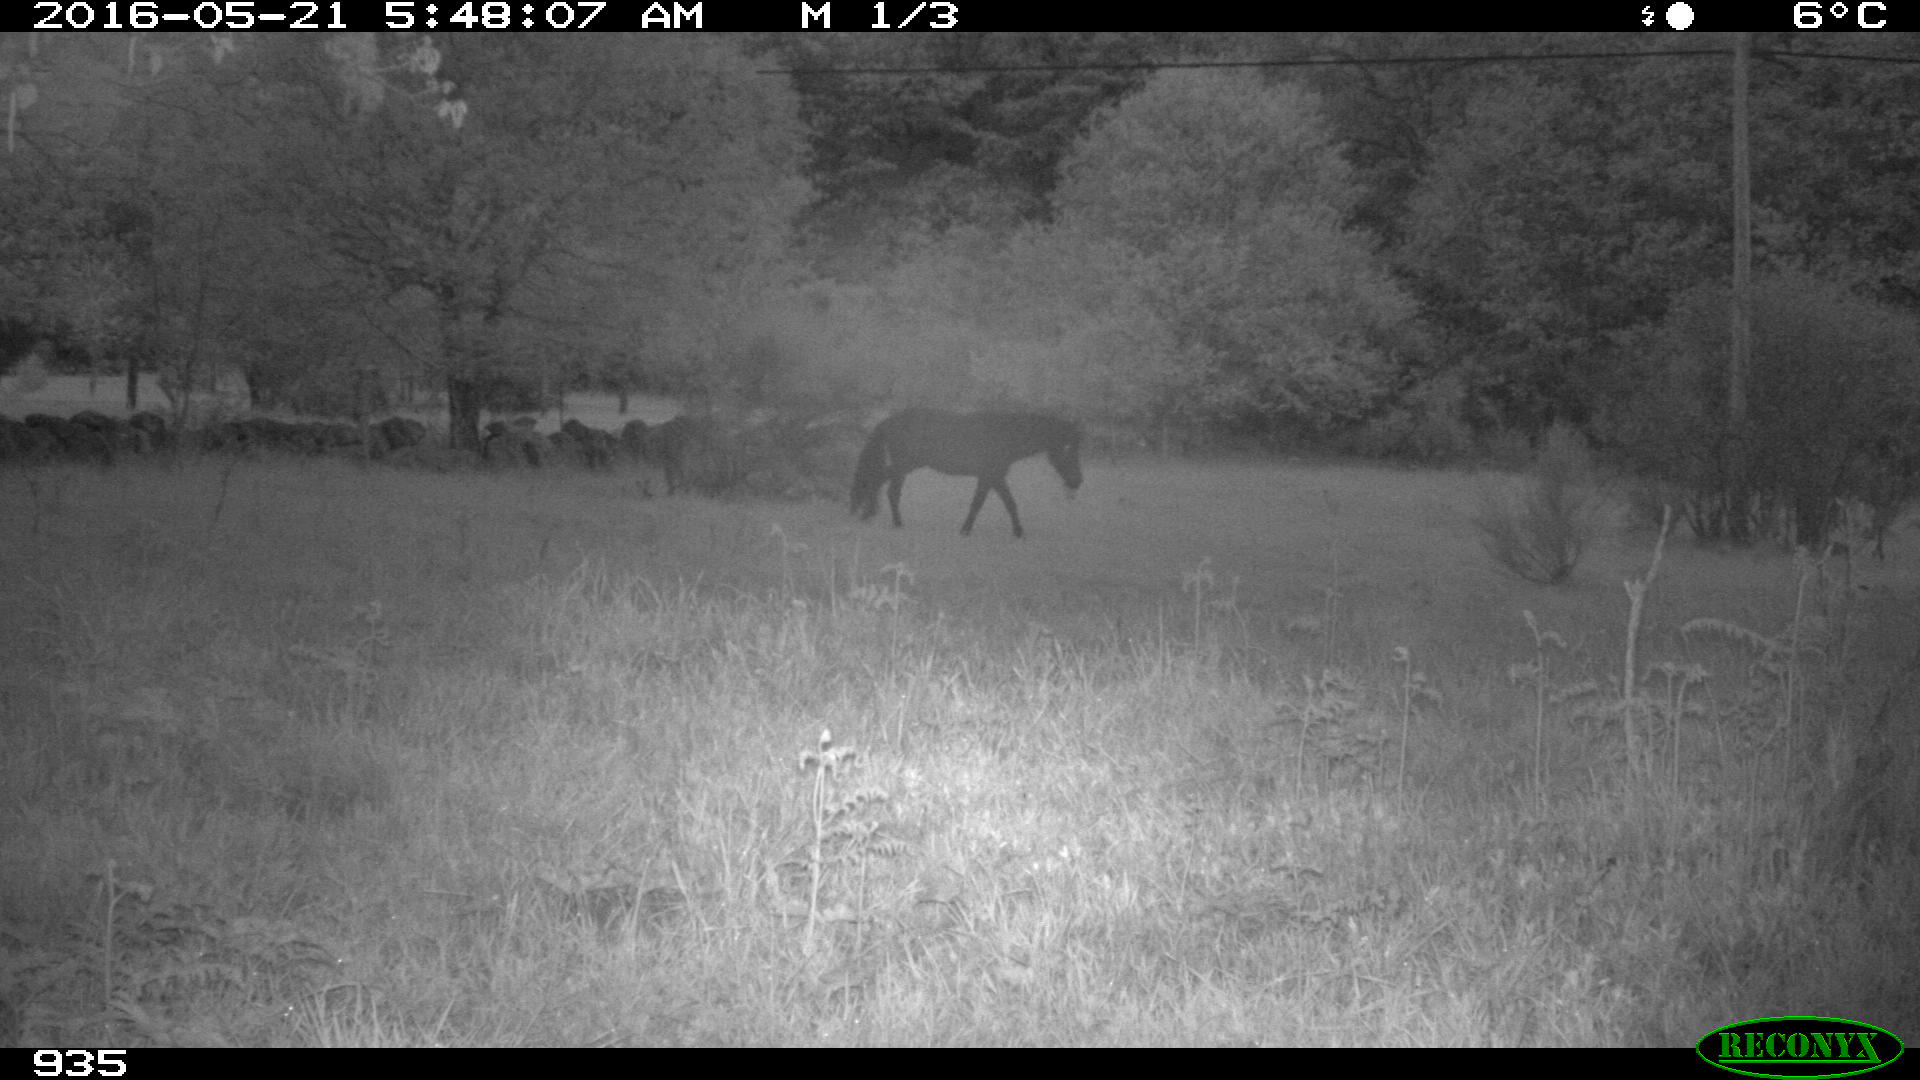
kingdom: Animalia
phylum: Chordata
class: Mammalia
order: Perissodactyla
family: Equidae
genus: Equus
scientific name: Equus caballus
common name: Horse
